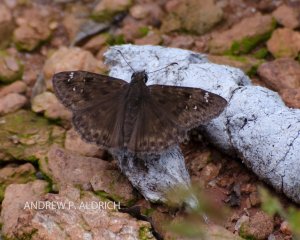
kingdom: Animalia
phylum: Arthropoda
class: Insecta
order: Lepidoptera
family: Hesperiidae
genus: Gesta
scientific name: Gesta
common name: Horace's Duskywing
